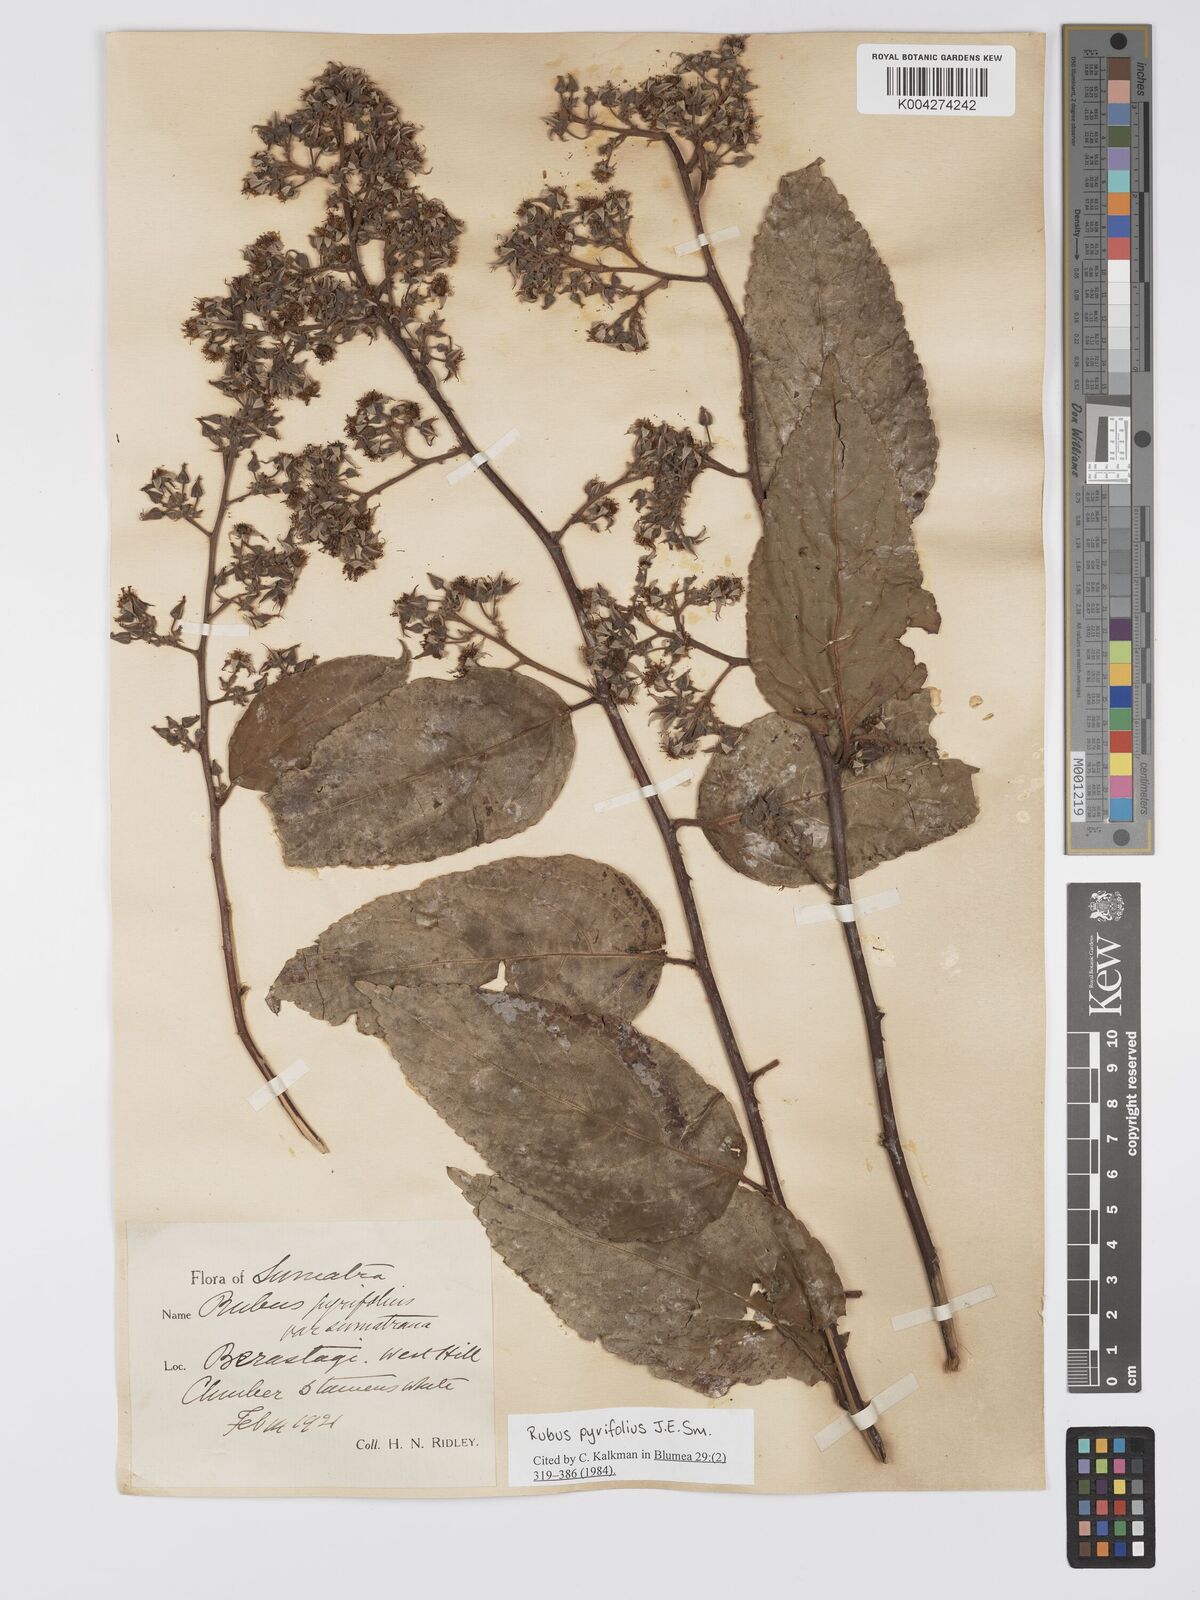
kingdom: Plantae
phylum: Tracheophyta
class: Magnoliopsida
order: Rosales
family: Rosaceae
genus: Rubus
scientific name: Rubus pirifolius
